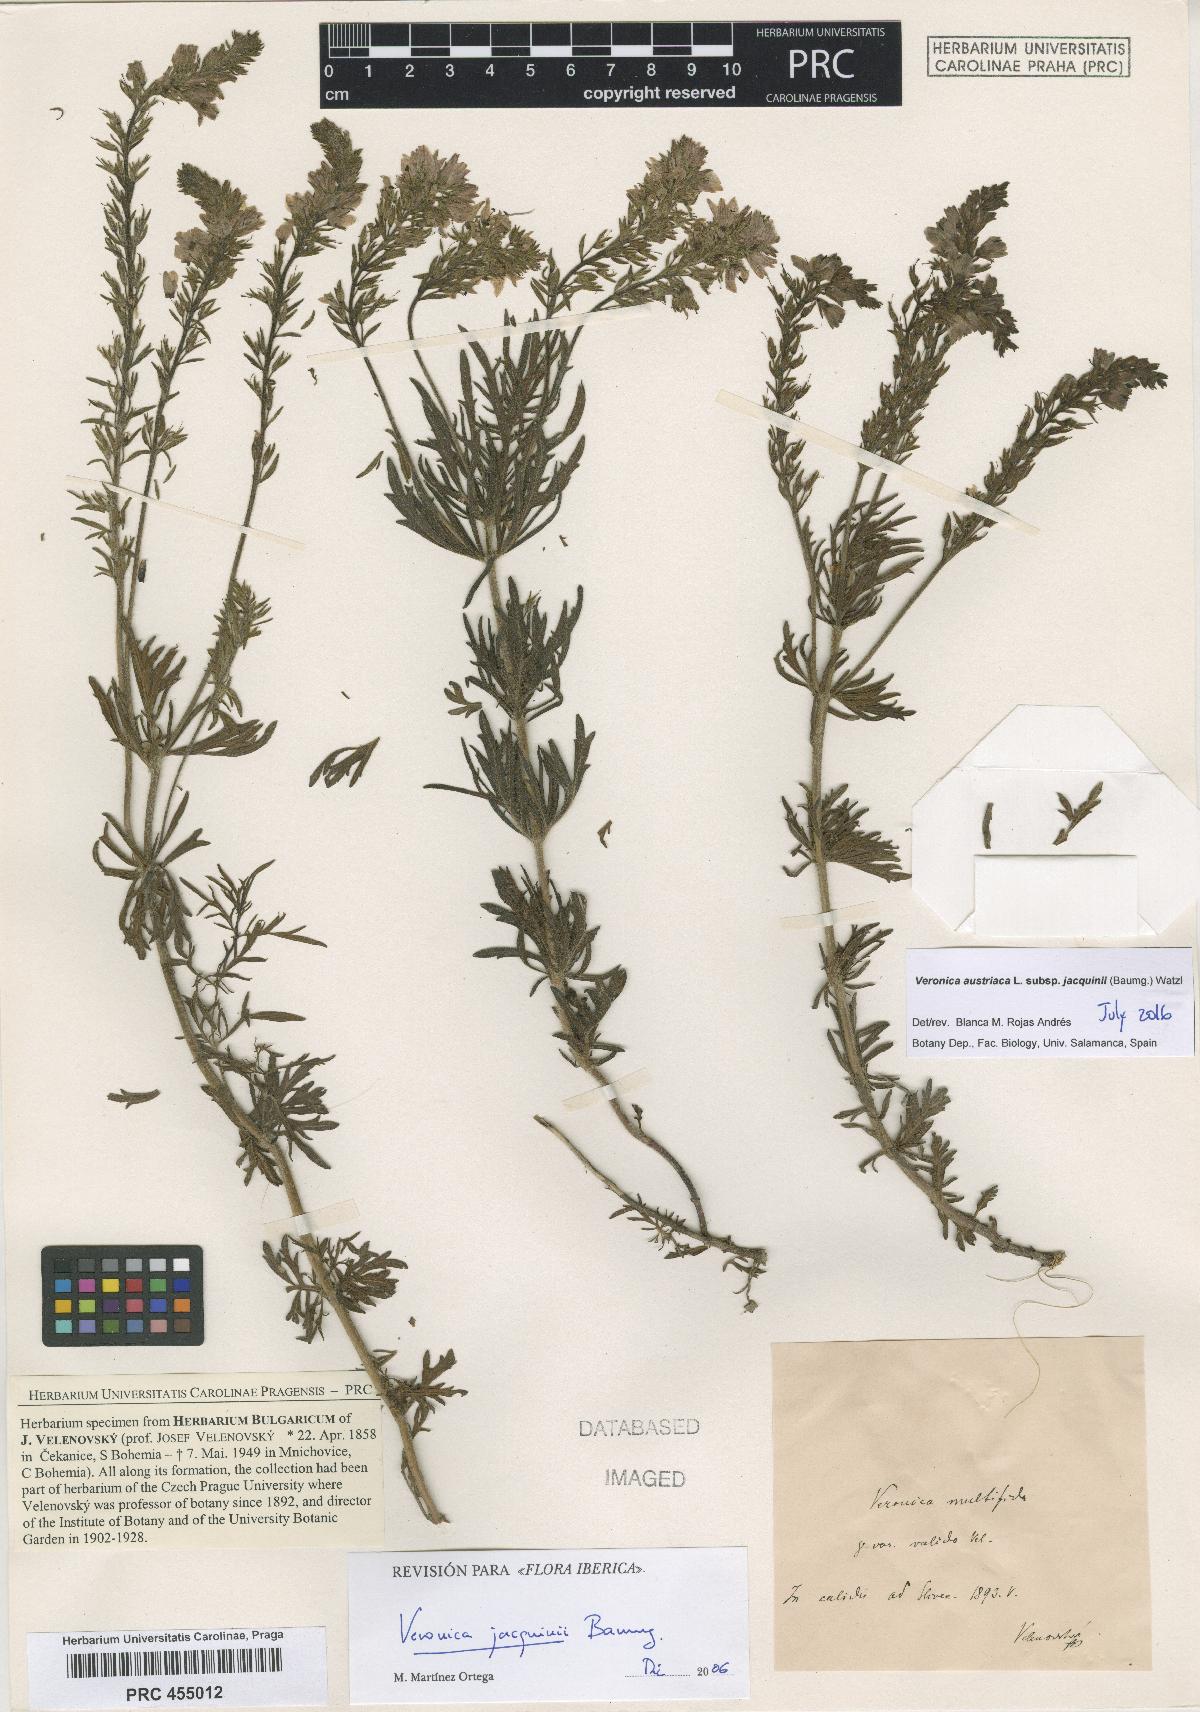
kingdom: Plantae
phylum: Tracheophyta
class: Magnoliopsida
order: Lamiales
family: Plantaginaceae
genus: Veronica
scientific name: Veronica austriaca
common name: Large speedwell
